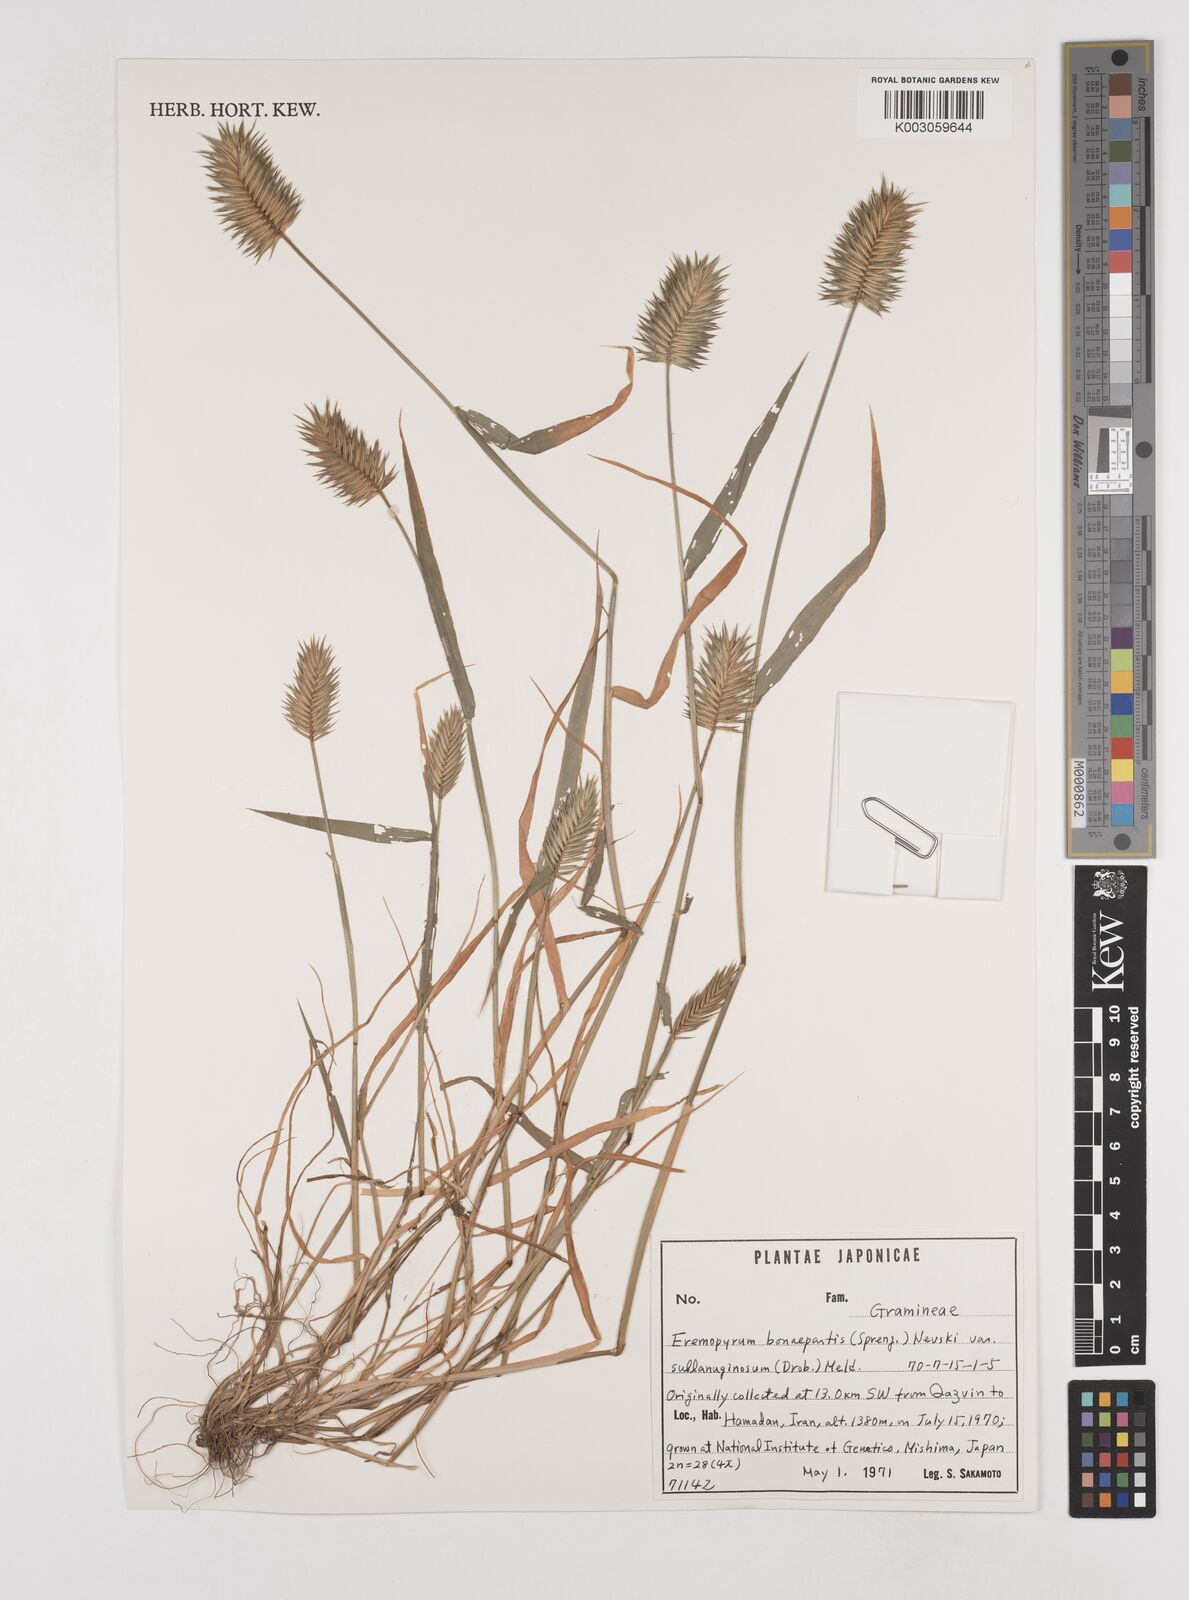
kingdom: Plantae
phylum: Tracheophyta
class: Liliopsida
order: Poales
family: Poaceae
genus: Eremopyrum
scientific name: Eremopyrum bonaepartis
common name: Tapertip false wheatgrass
